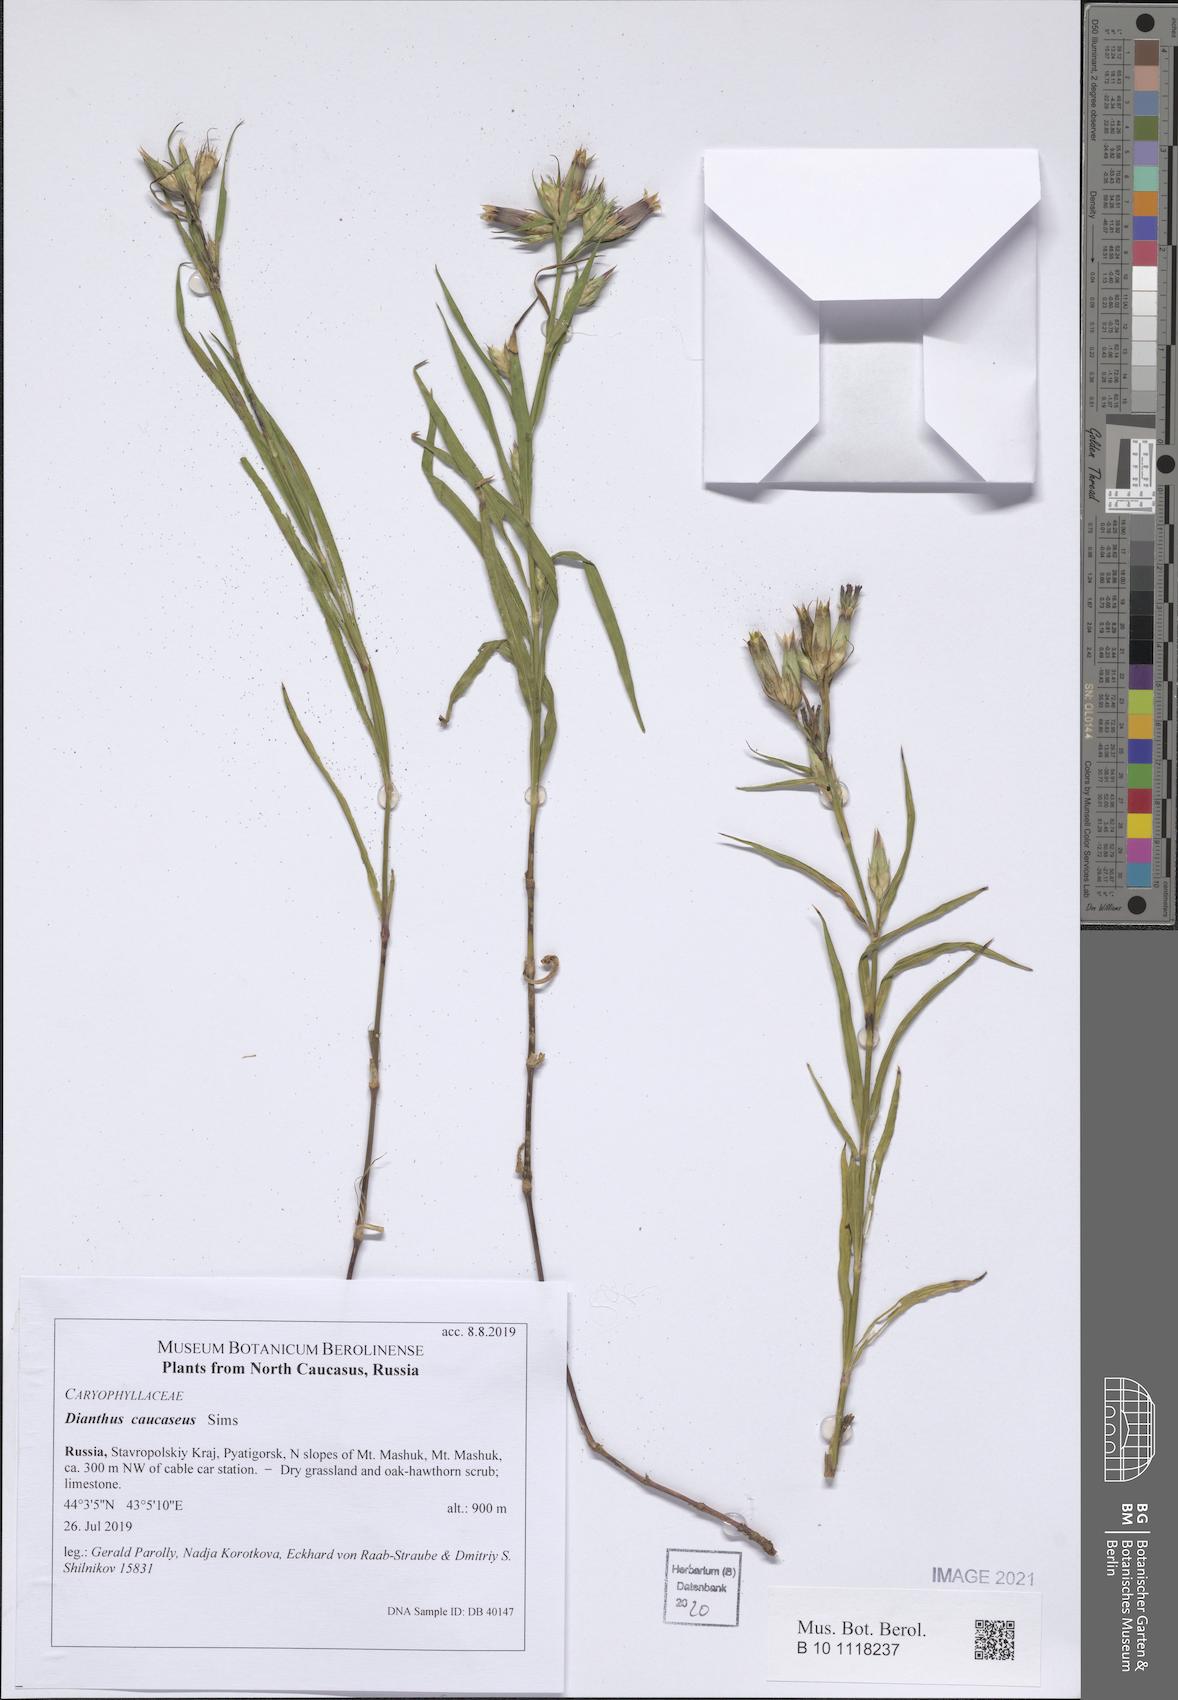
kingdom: Plantae
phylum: Tracheophyta
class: Magnoliopsida
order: Caryophyllales
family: Caryophyllaceae
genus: Dianthus
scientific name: Dianthus caucaseus
